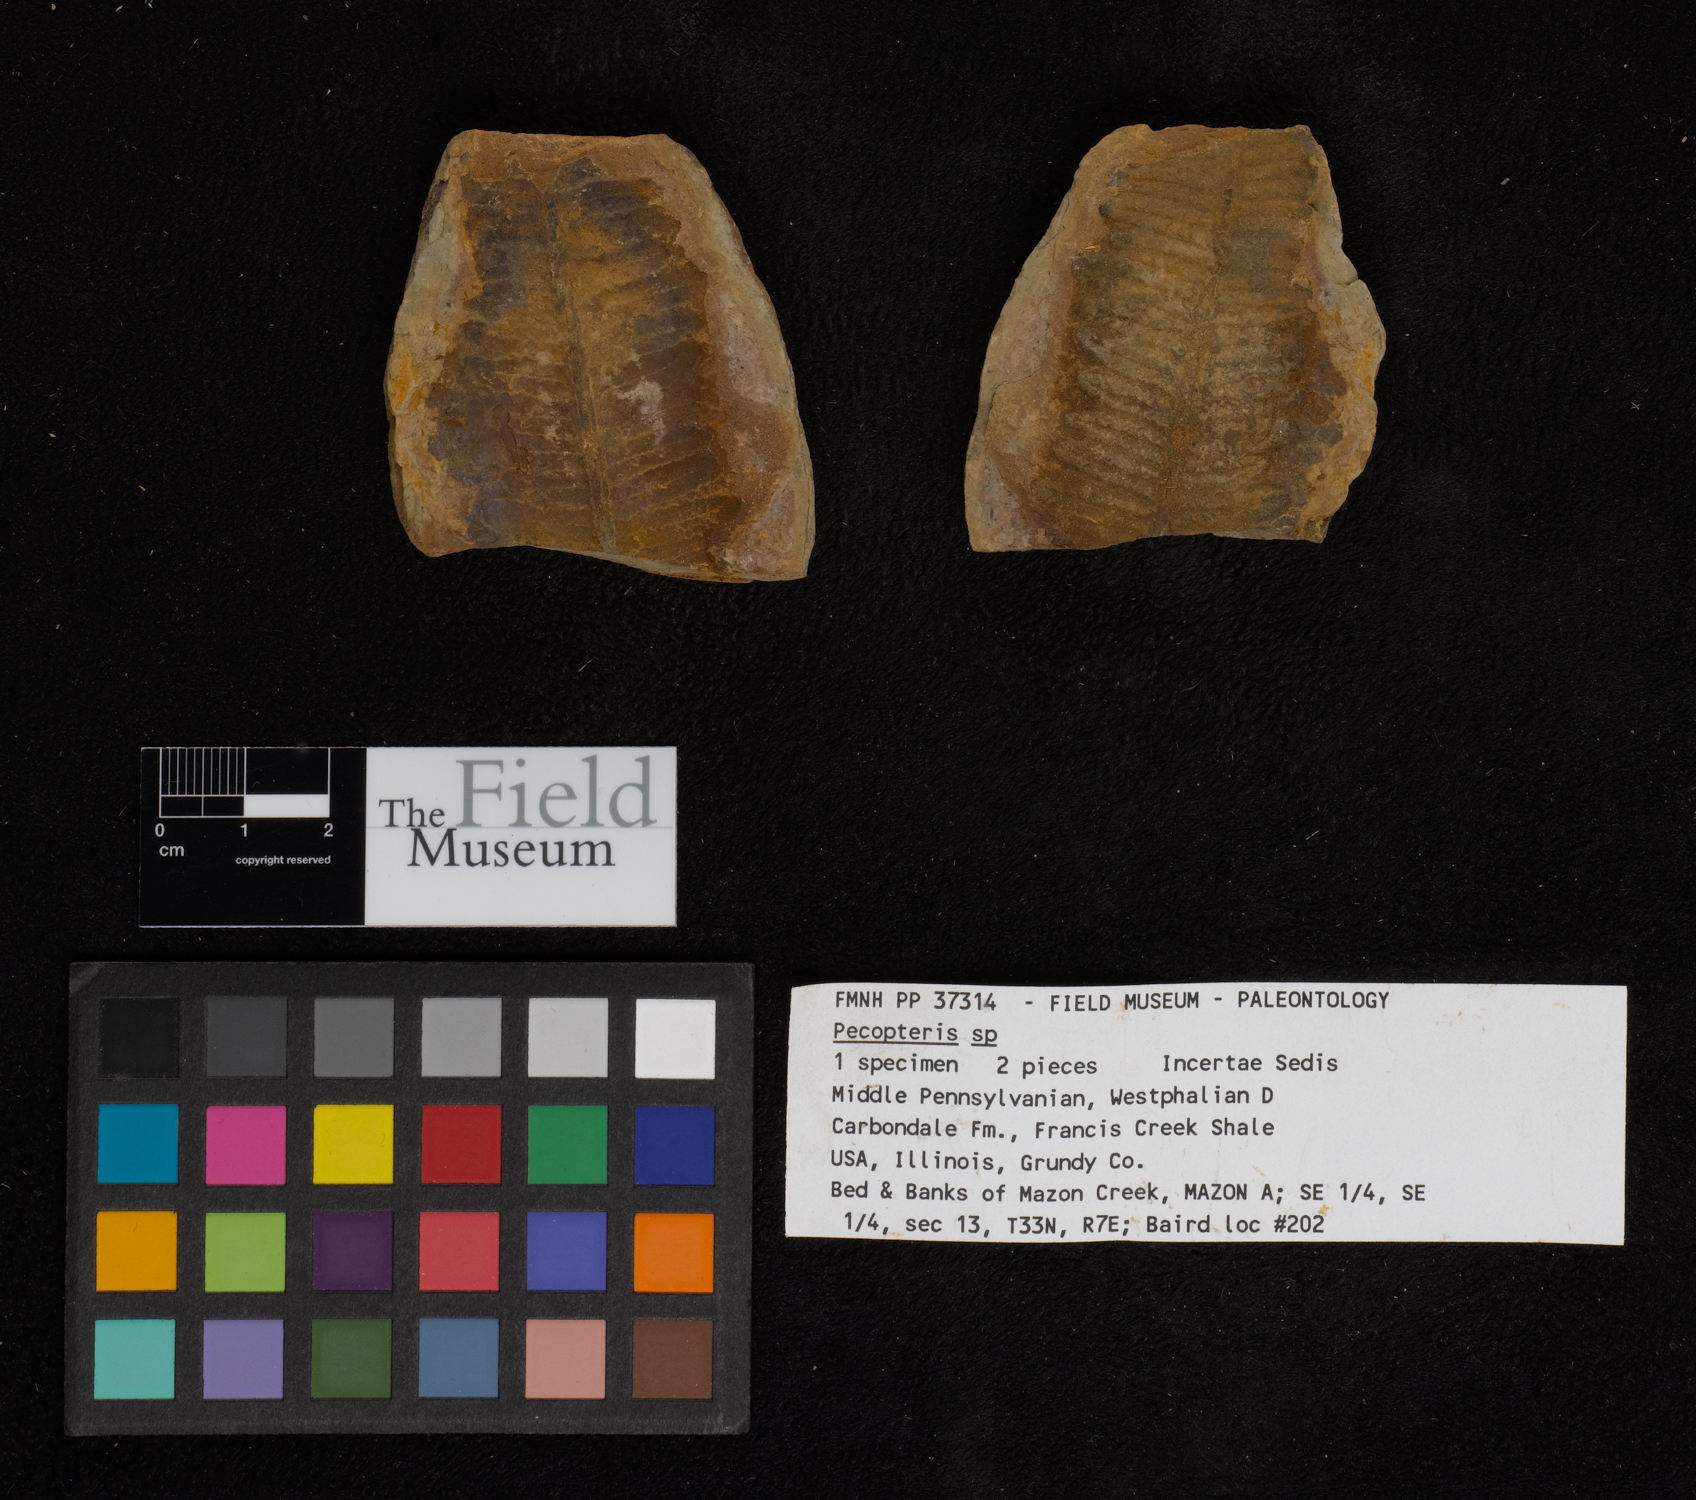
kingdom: Plantae
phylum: Tracheophyta
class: Polypodiopsida
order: Marattiales
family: Asterothecaceae
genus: Pecopteris
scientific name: Pecopteris
